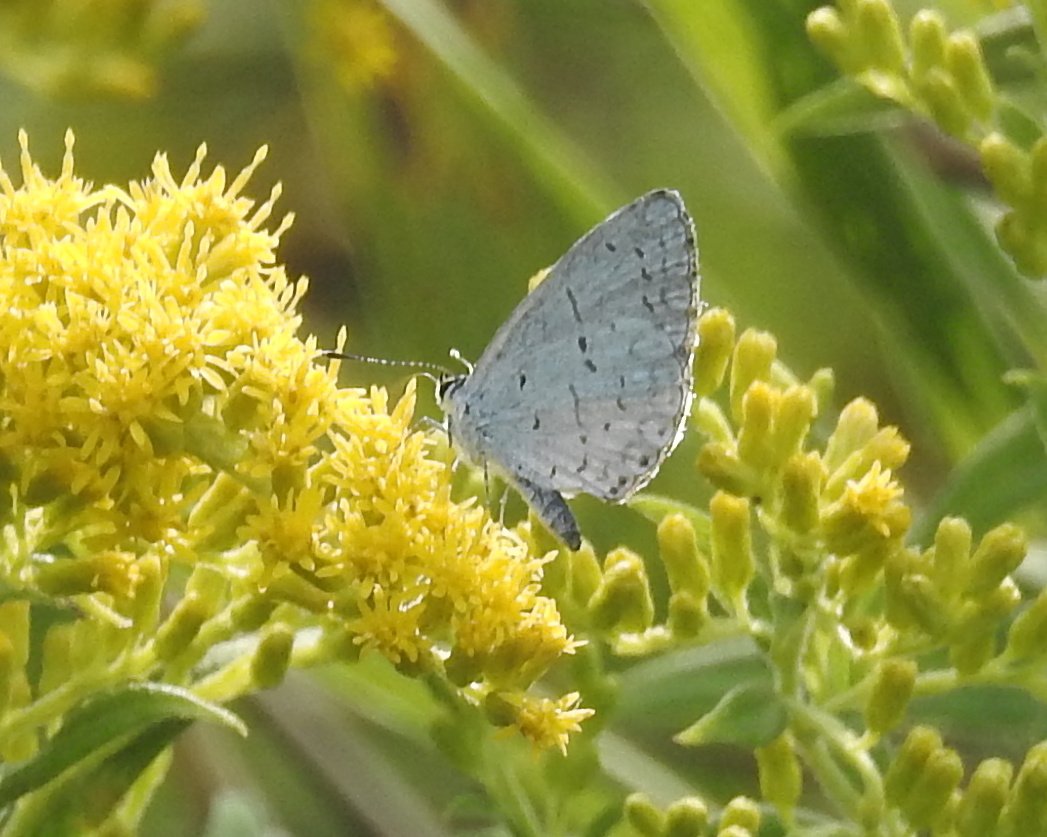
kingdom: Animalia
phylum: Arthropoda
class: Insecta
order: Lepidoptera
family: Lycaenidae
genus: Celastrina
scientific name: Celastrina
